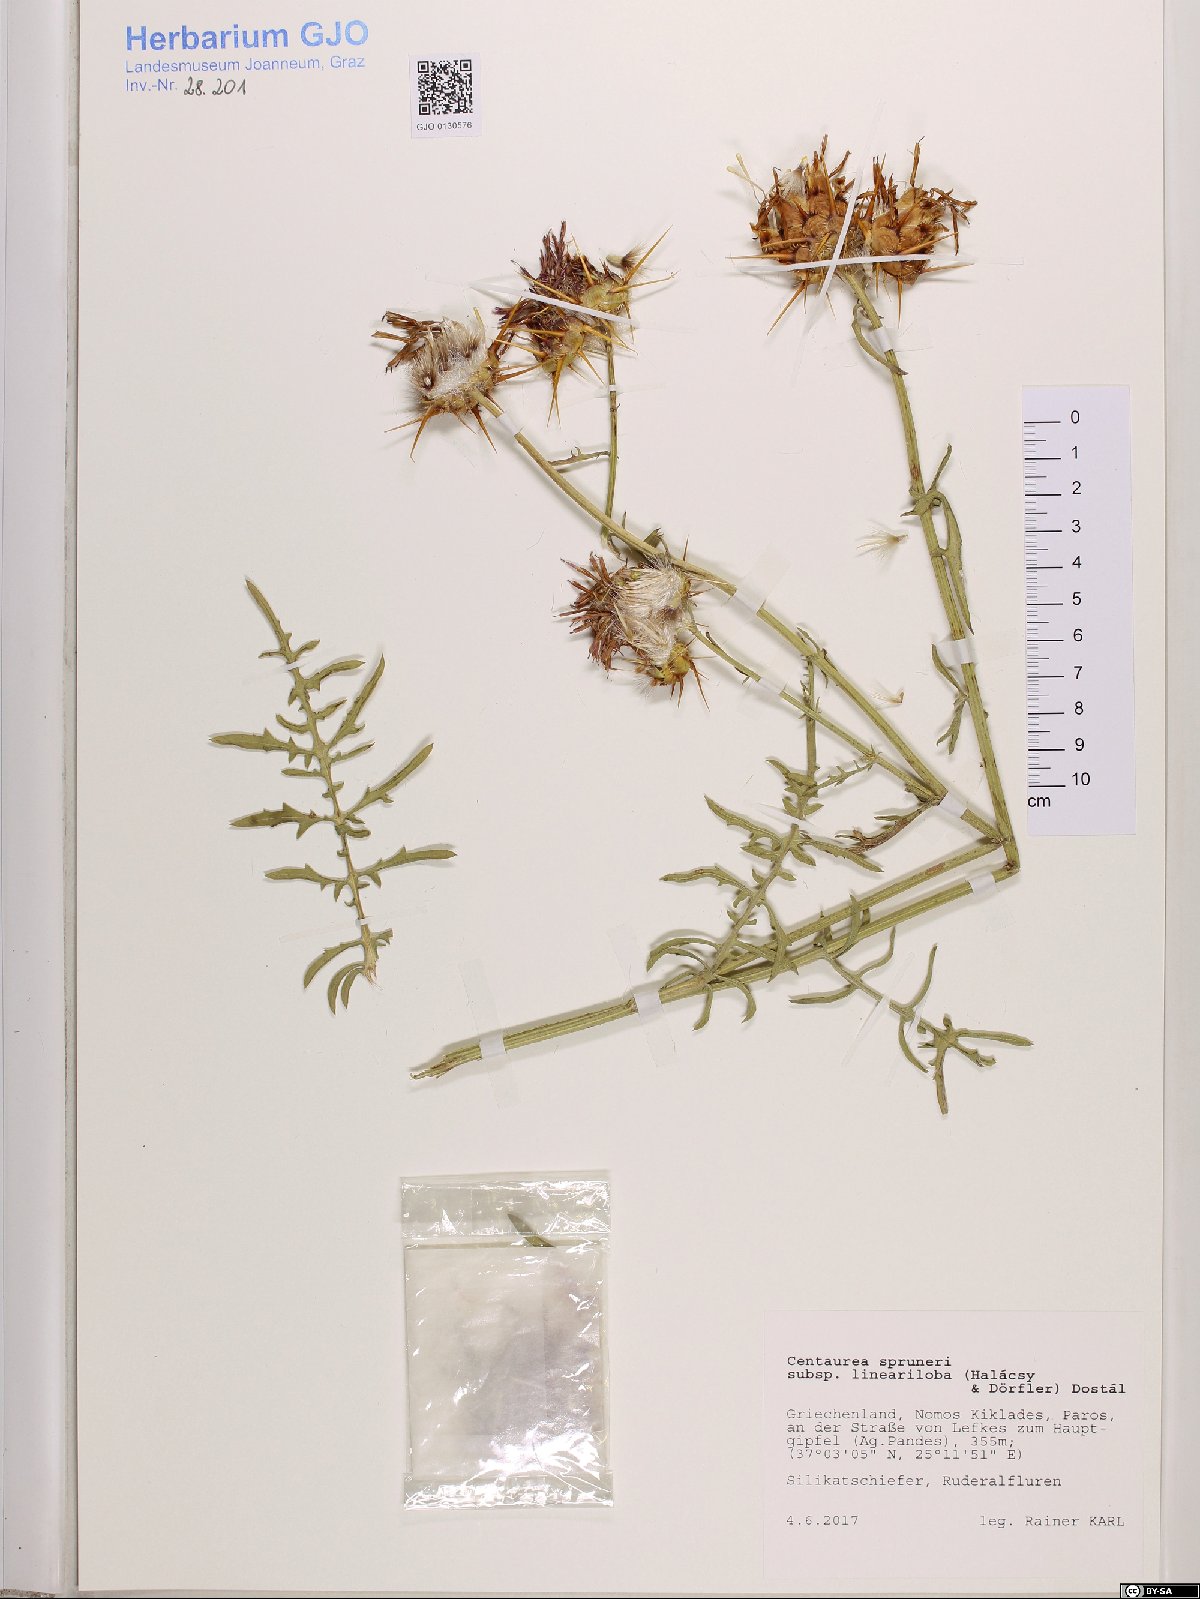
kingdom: Plantae
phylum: Tracheophyta
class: Magnoliopsida
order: Asterales
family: Asteraceae
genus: Centaurea
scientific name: Centaurea laconica
